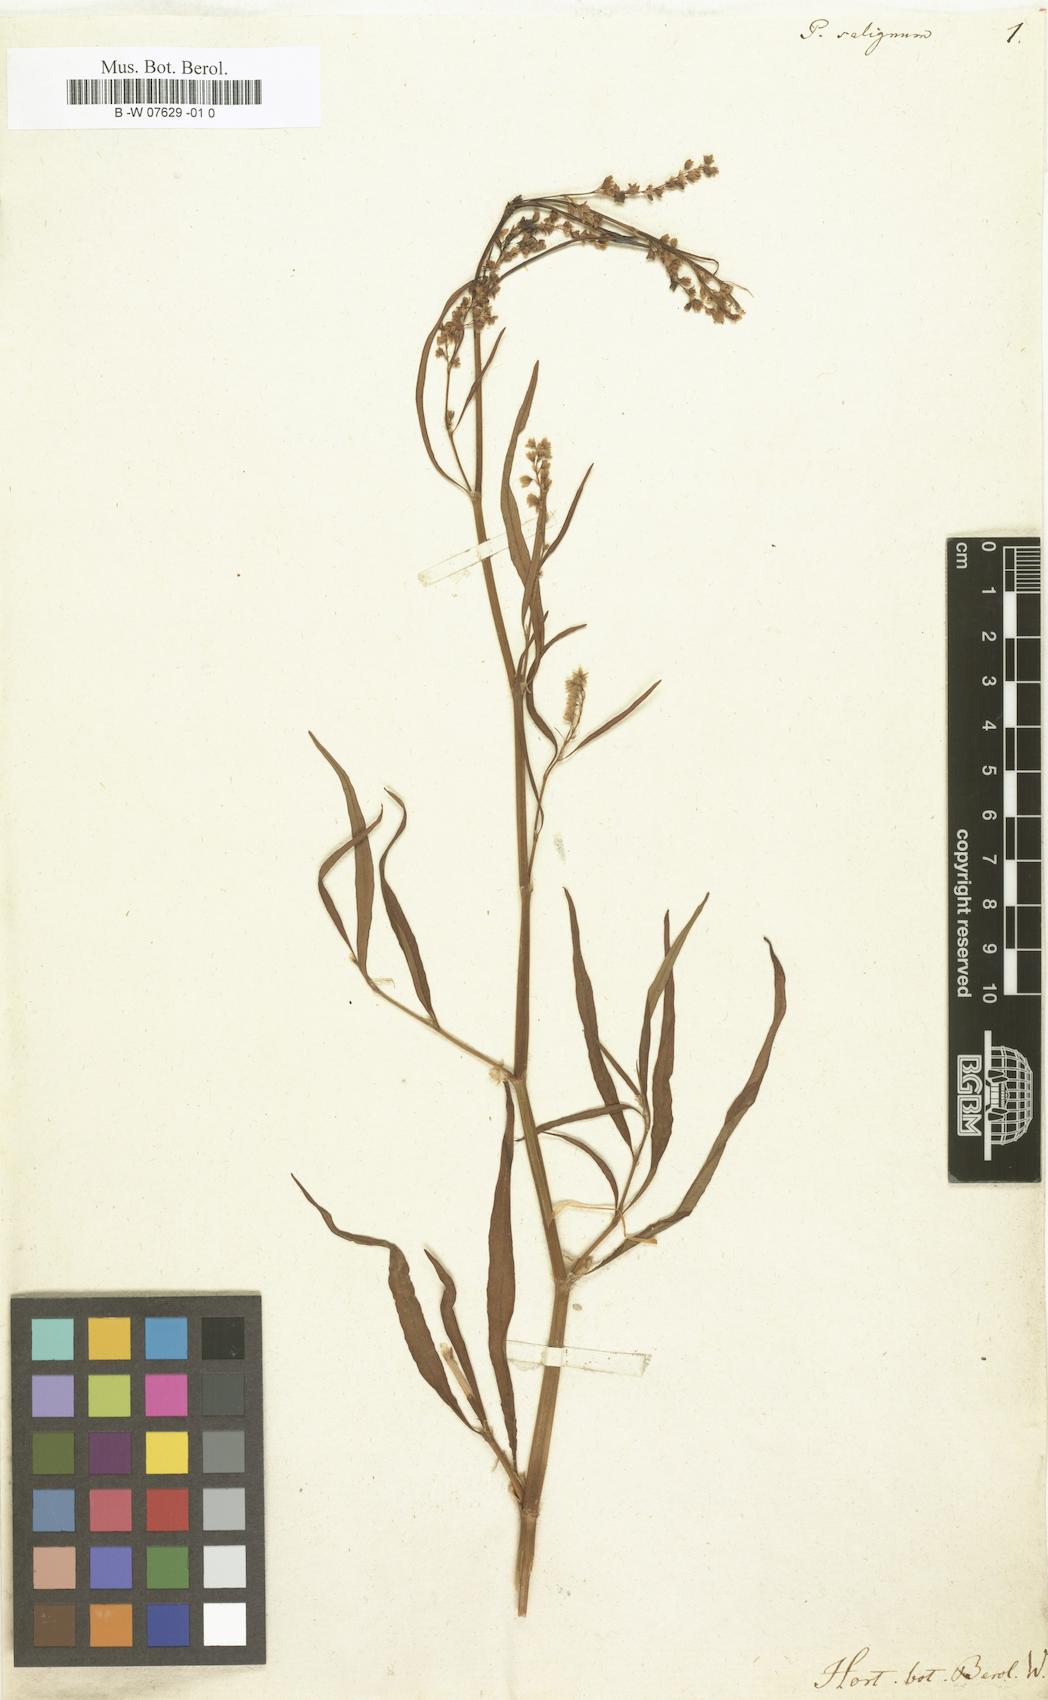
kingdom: Plantae
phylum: Tracheophyta
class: Magnoliopsida
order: Caryophyllales
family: Polygonaceae
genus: Persicaria
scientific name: Persicaria angustifolia
